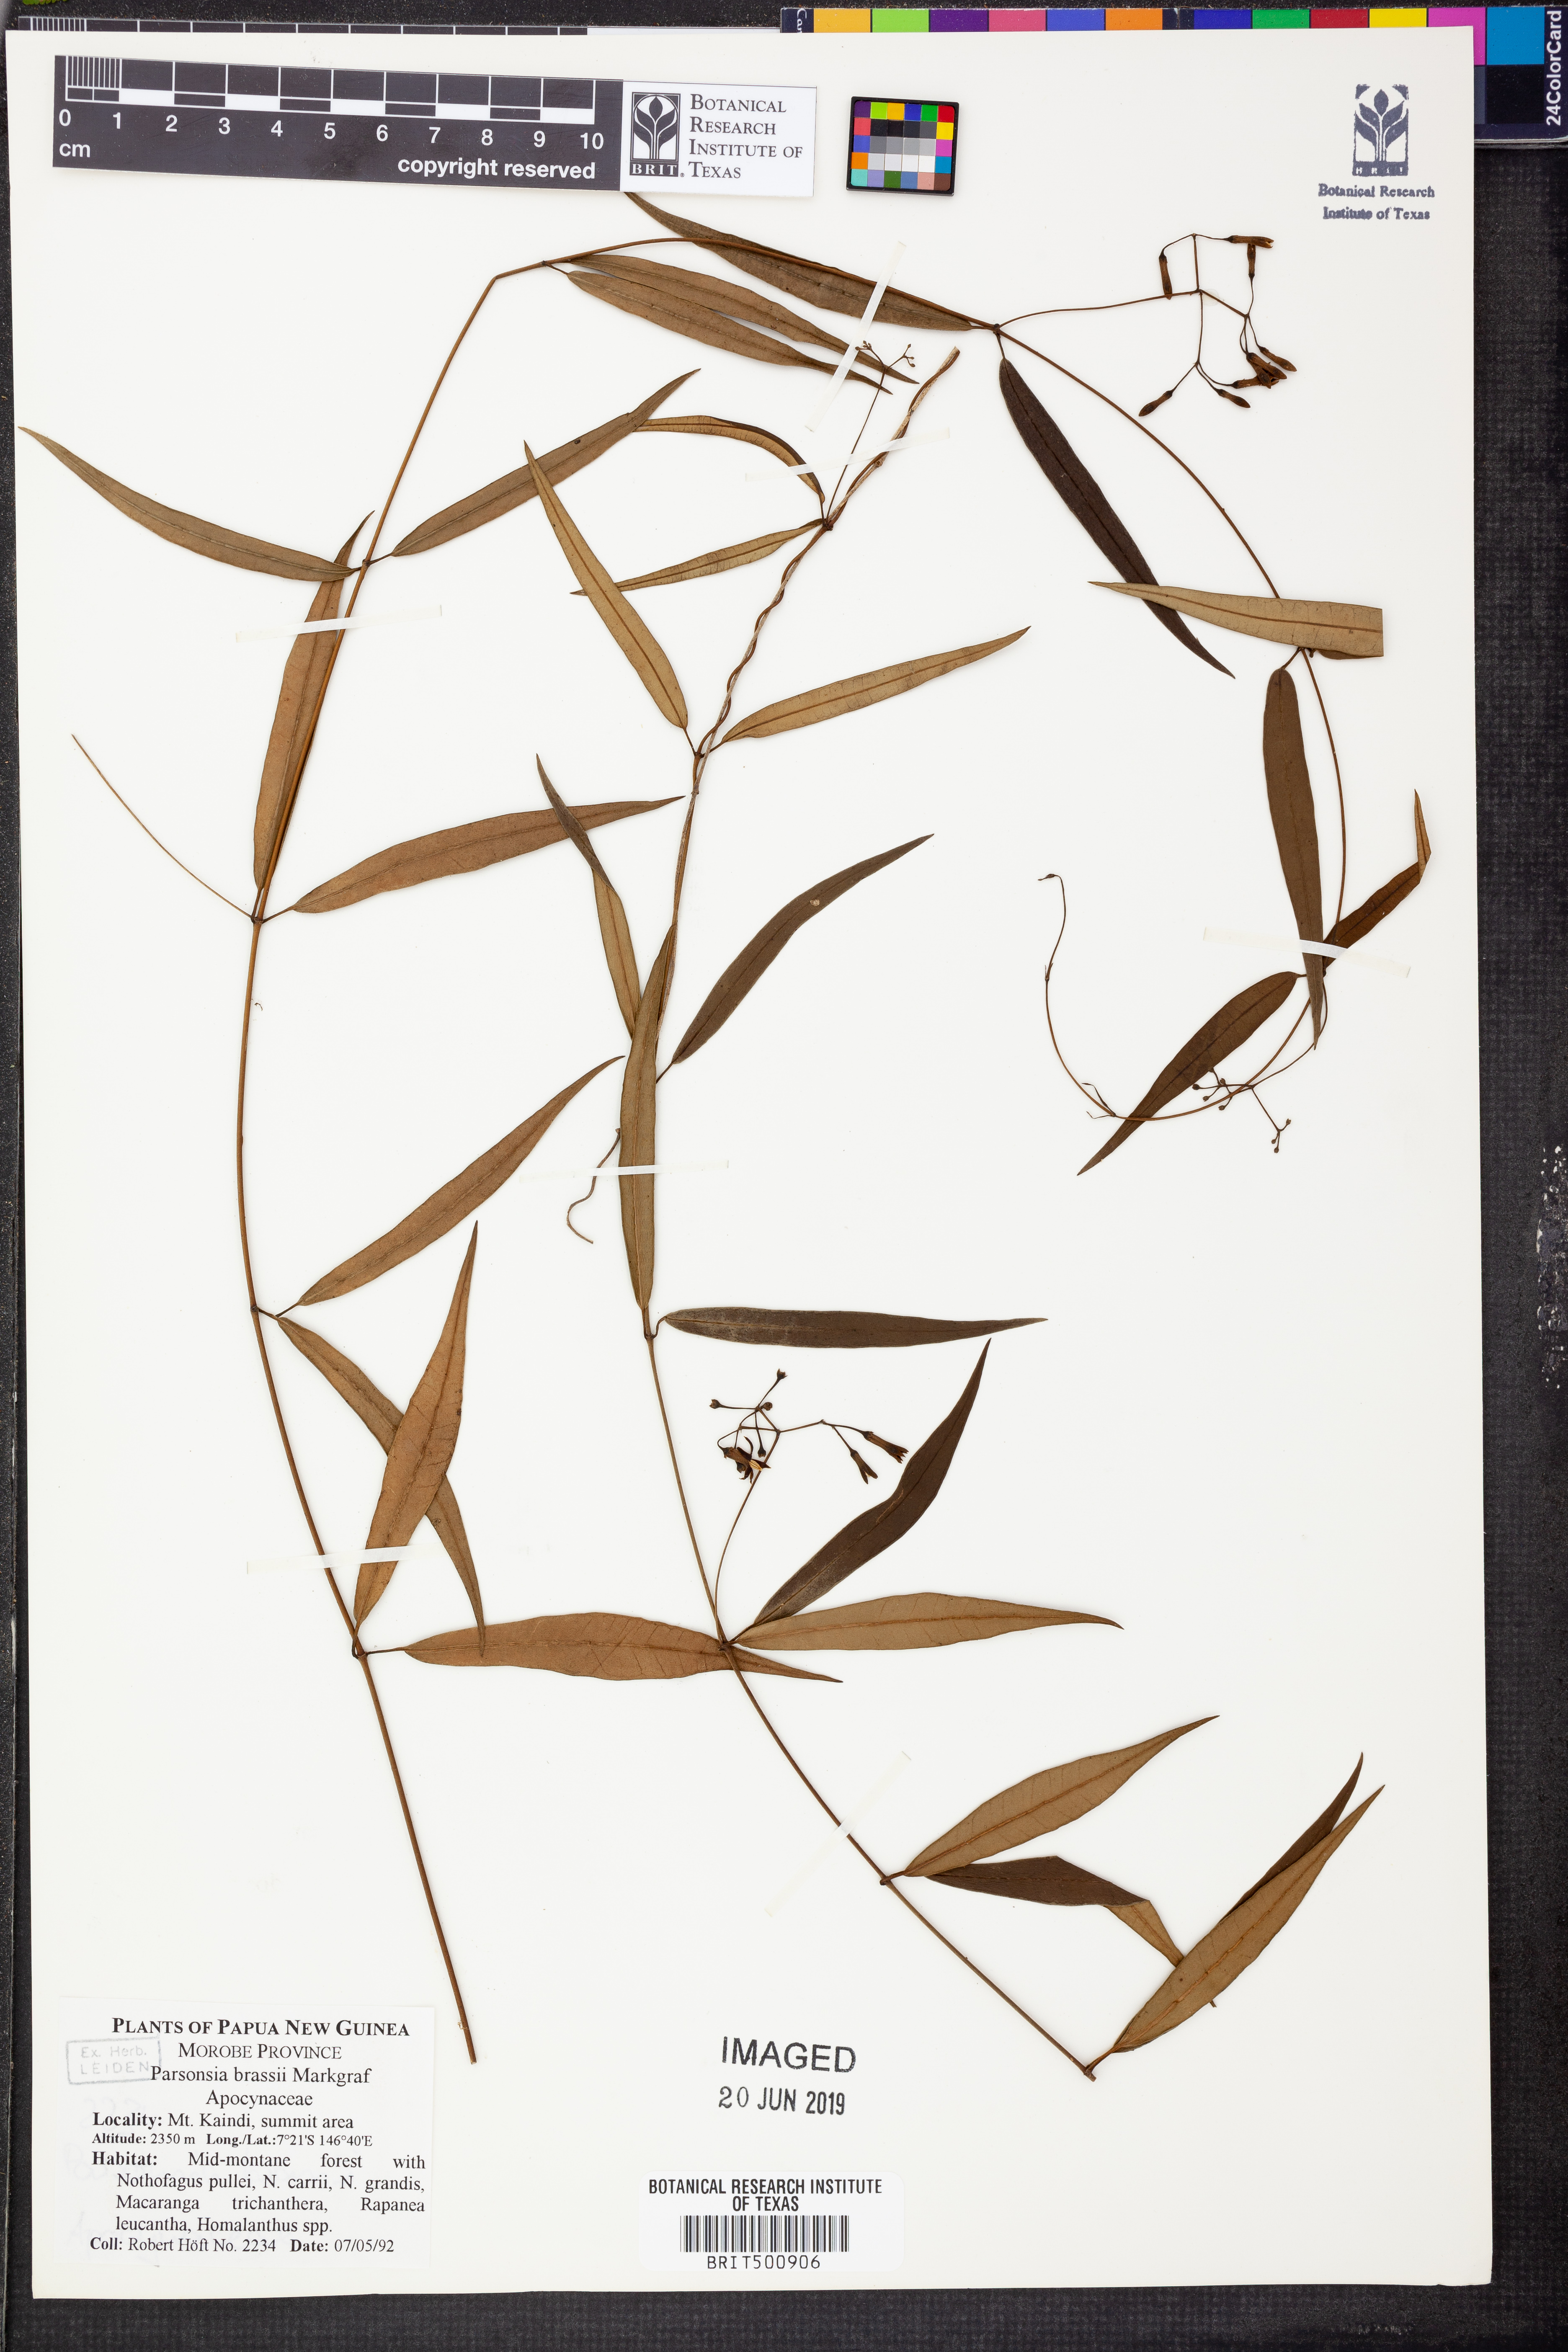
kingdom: Plantae
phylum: Tracheophyta
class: Magnoliopsida
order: Gentianales
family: Apocynaceae
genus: Parsonsia
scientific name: Parsonsia sanguinea
